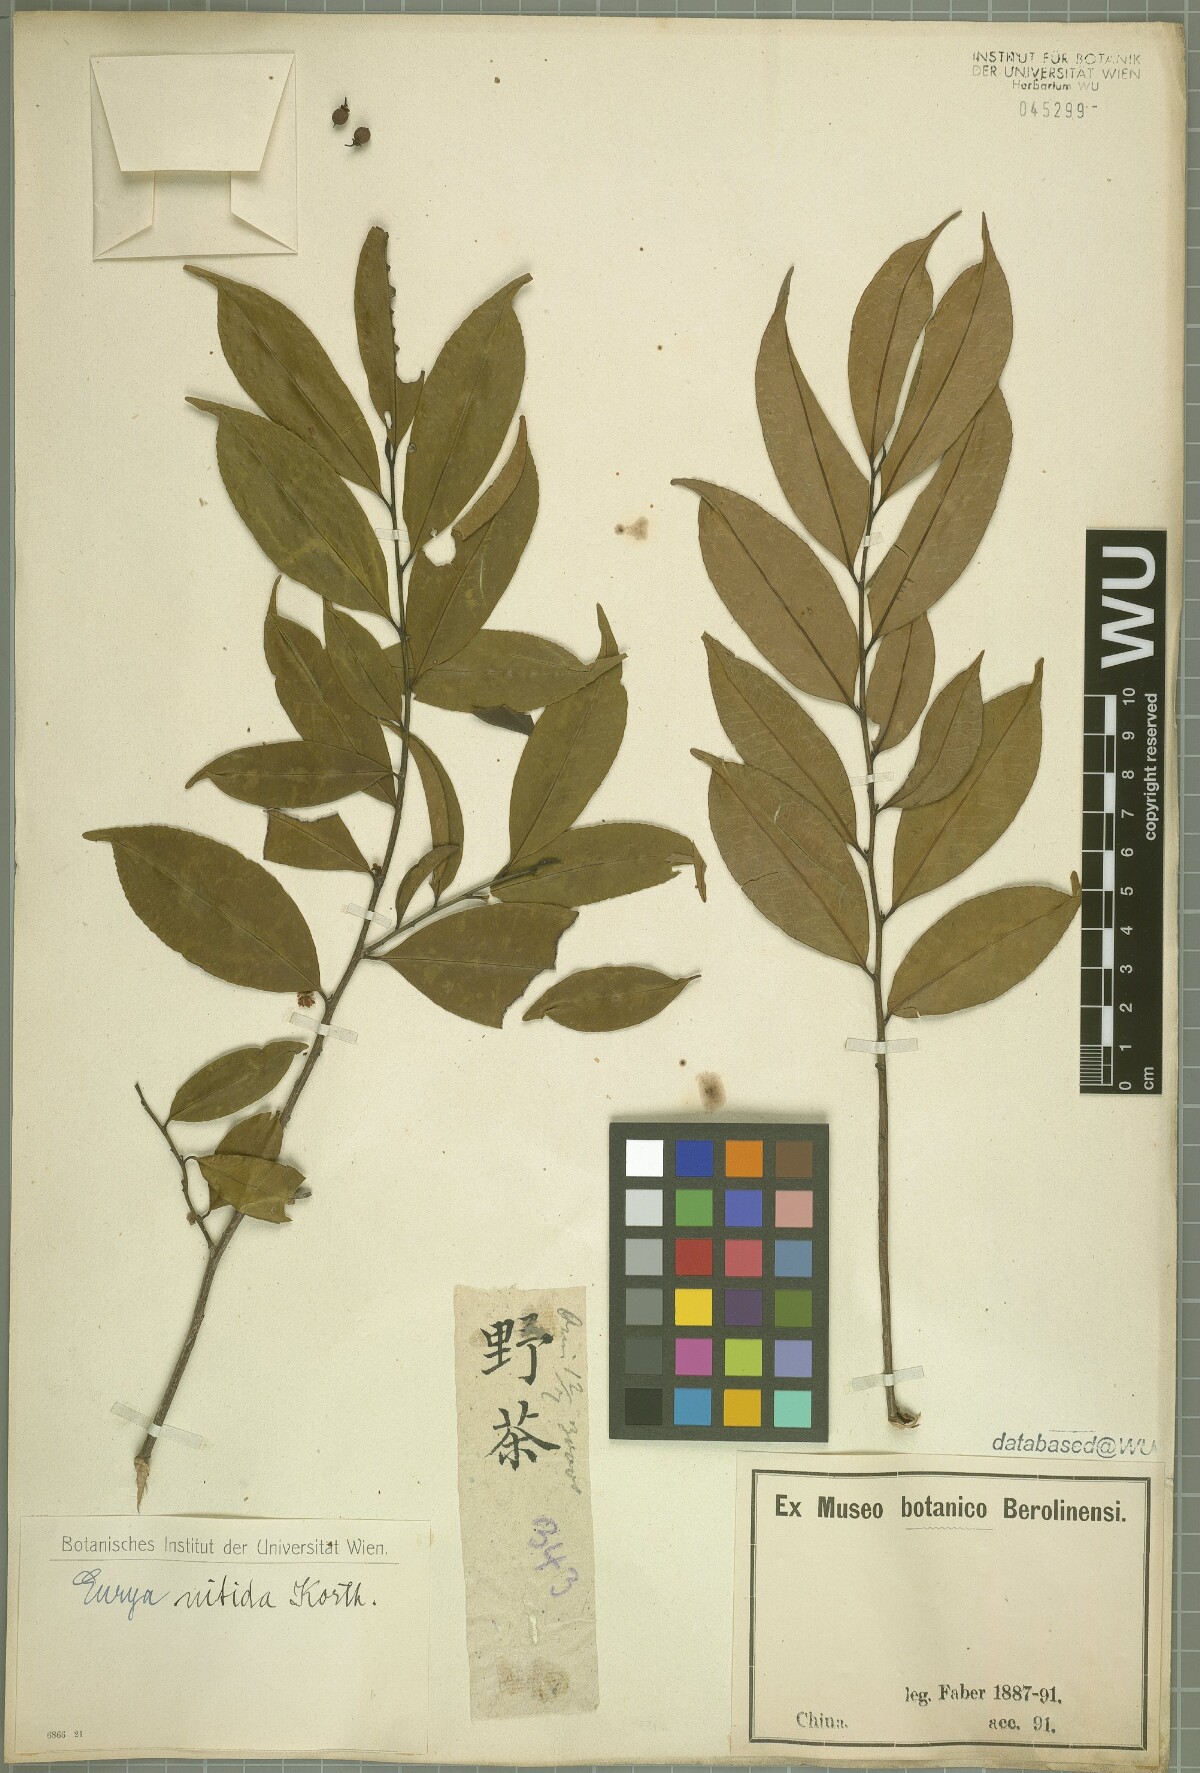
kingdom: Plantae
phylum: Tracheophyta
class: Magnoliopsida
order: Ericales
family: Pentaphylacaceae
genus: Eurya
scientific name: Eurya nitida
